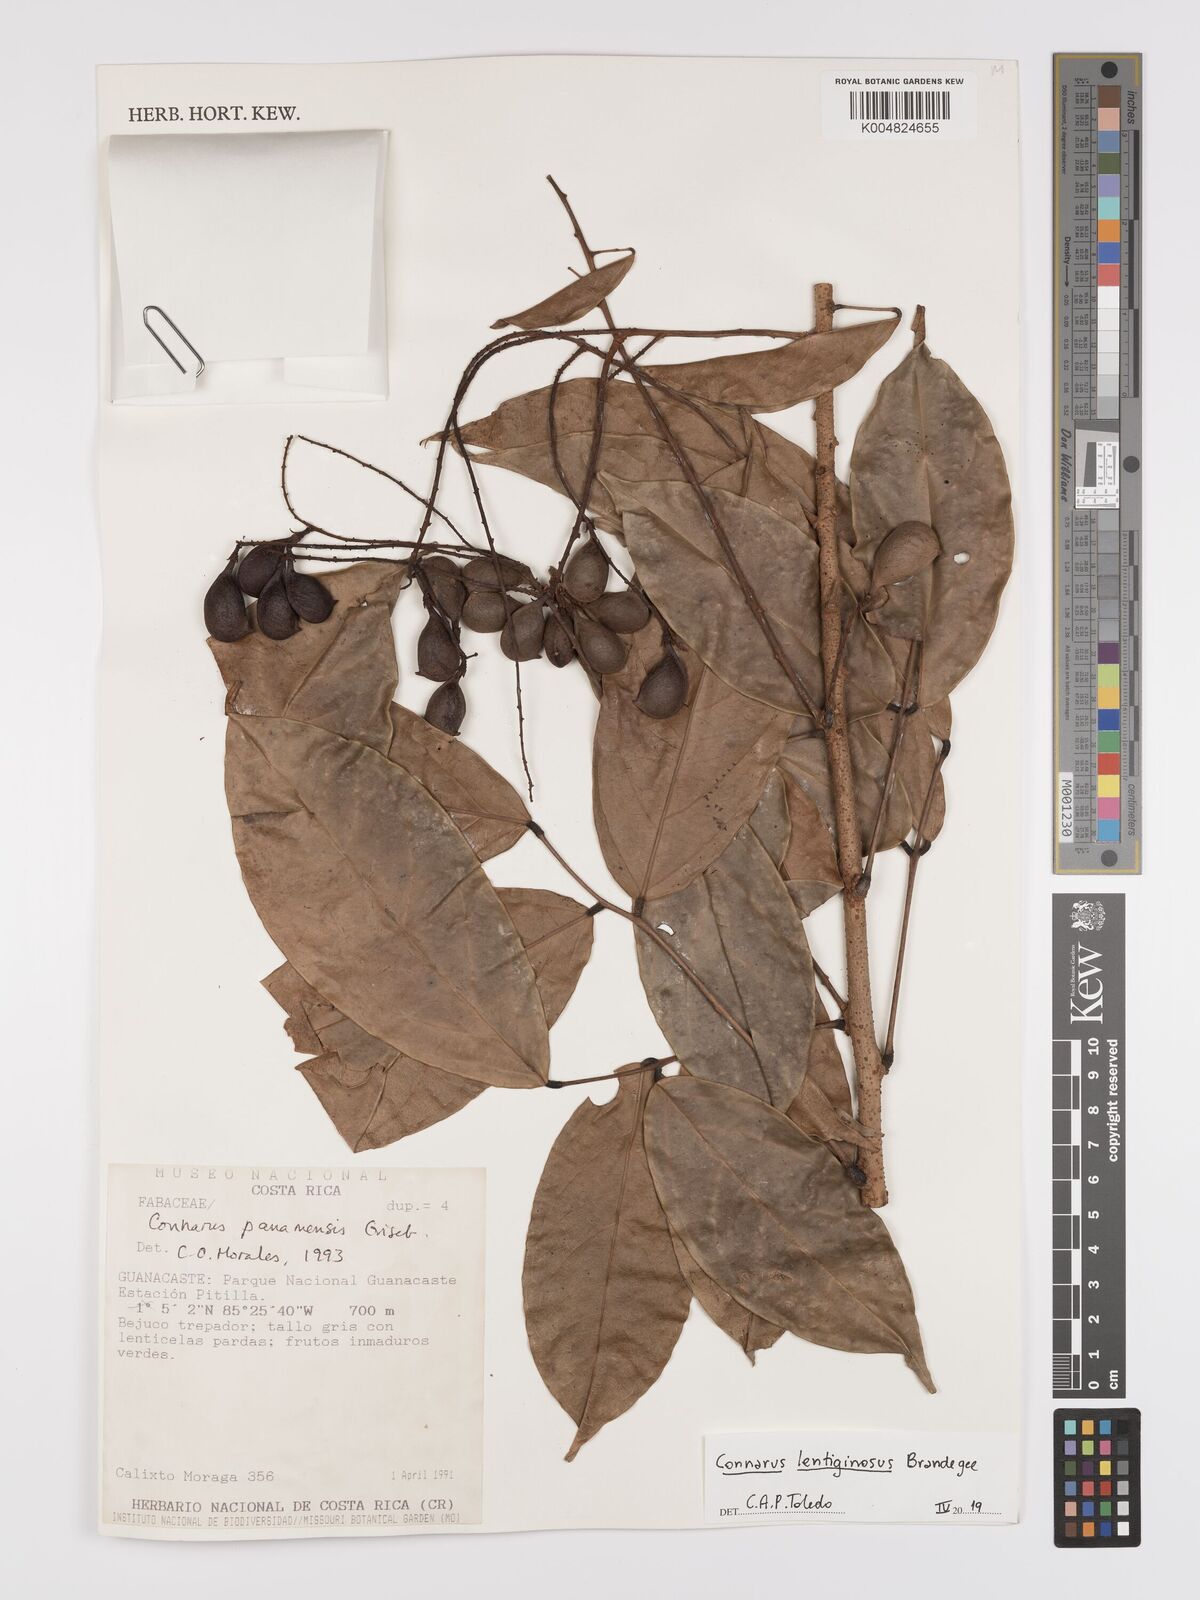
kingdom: Plantae
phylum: Tracheophyta
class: Magnoliopsida
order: Oxalidales
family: Connaraceae
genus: Connarus
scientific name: Connarus lentiginosus
